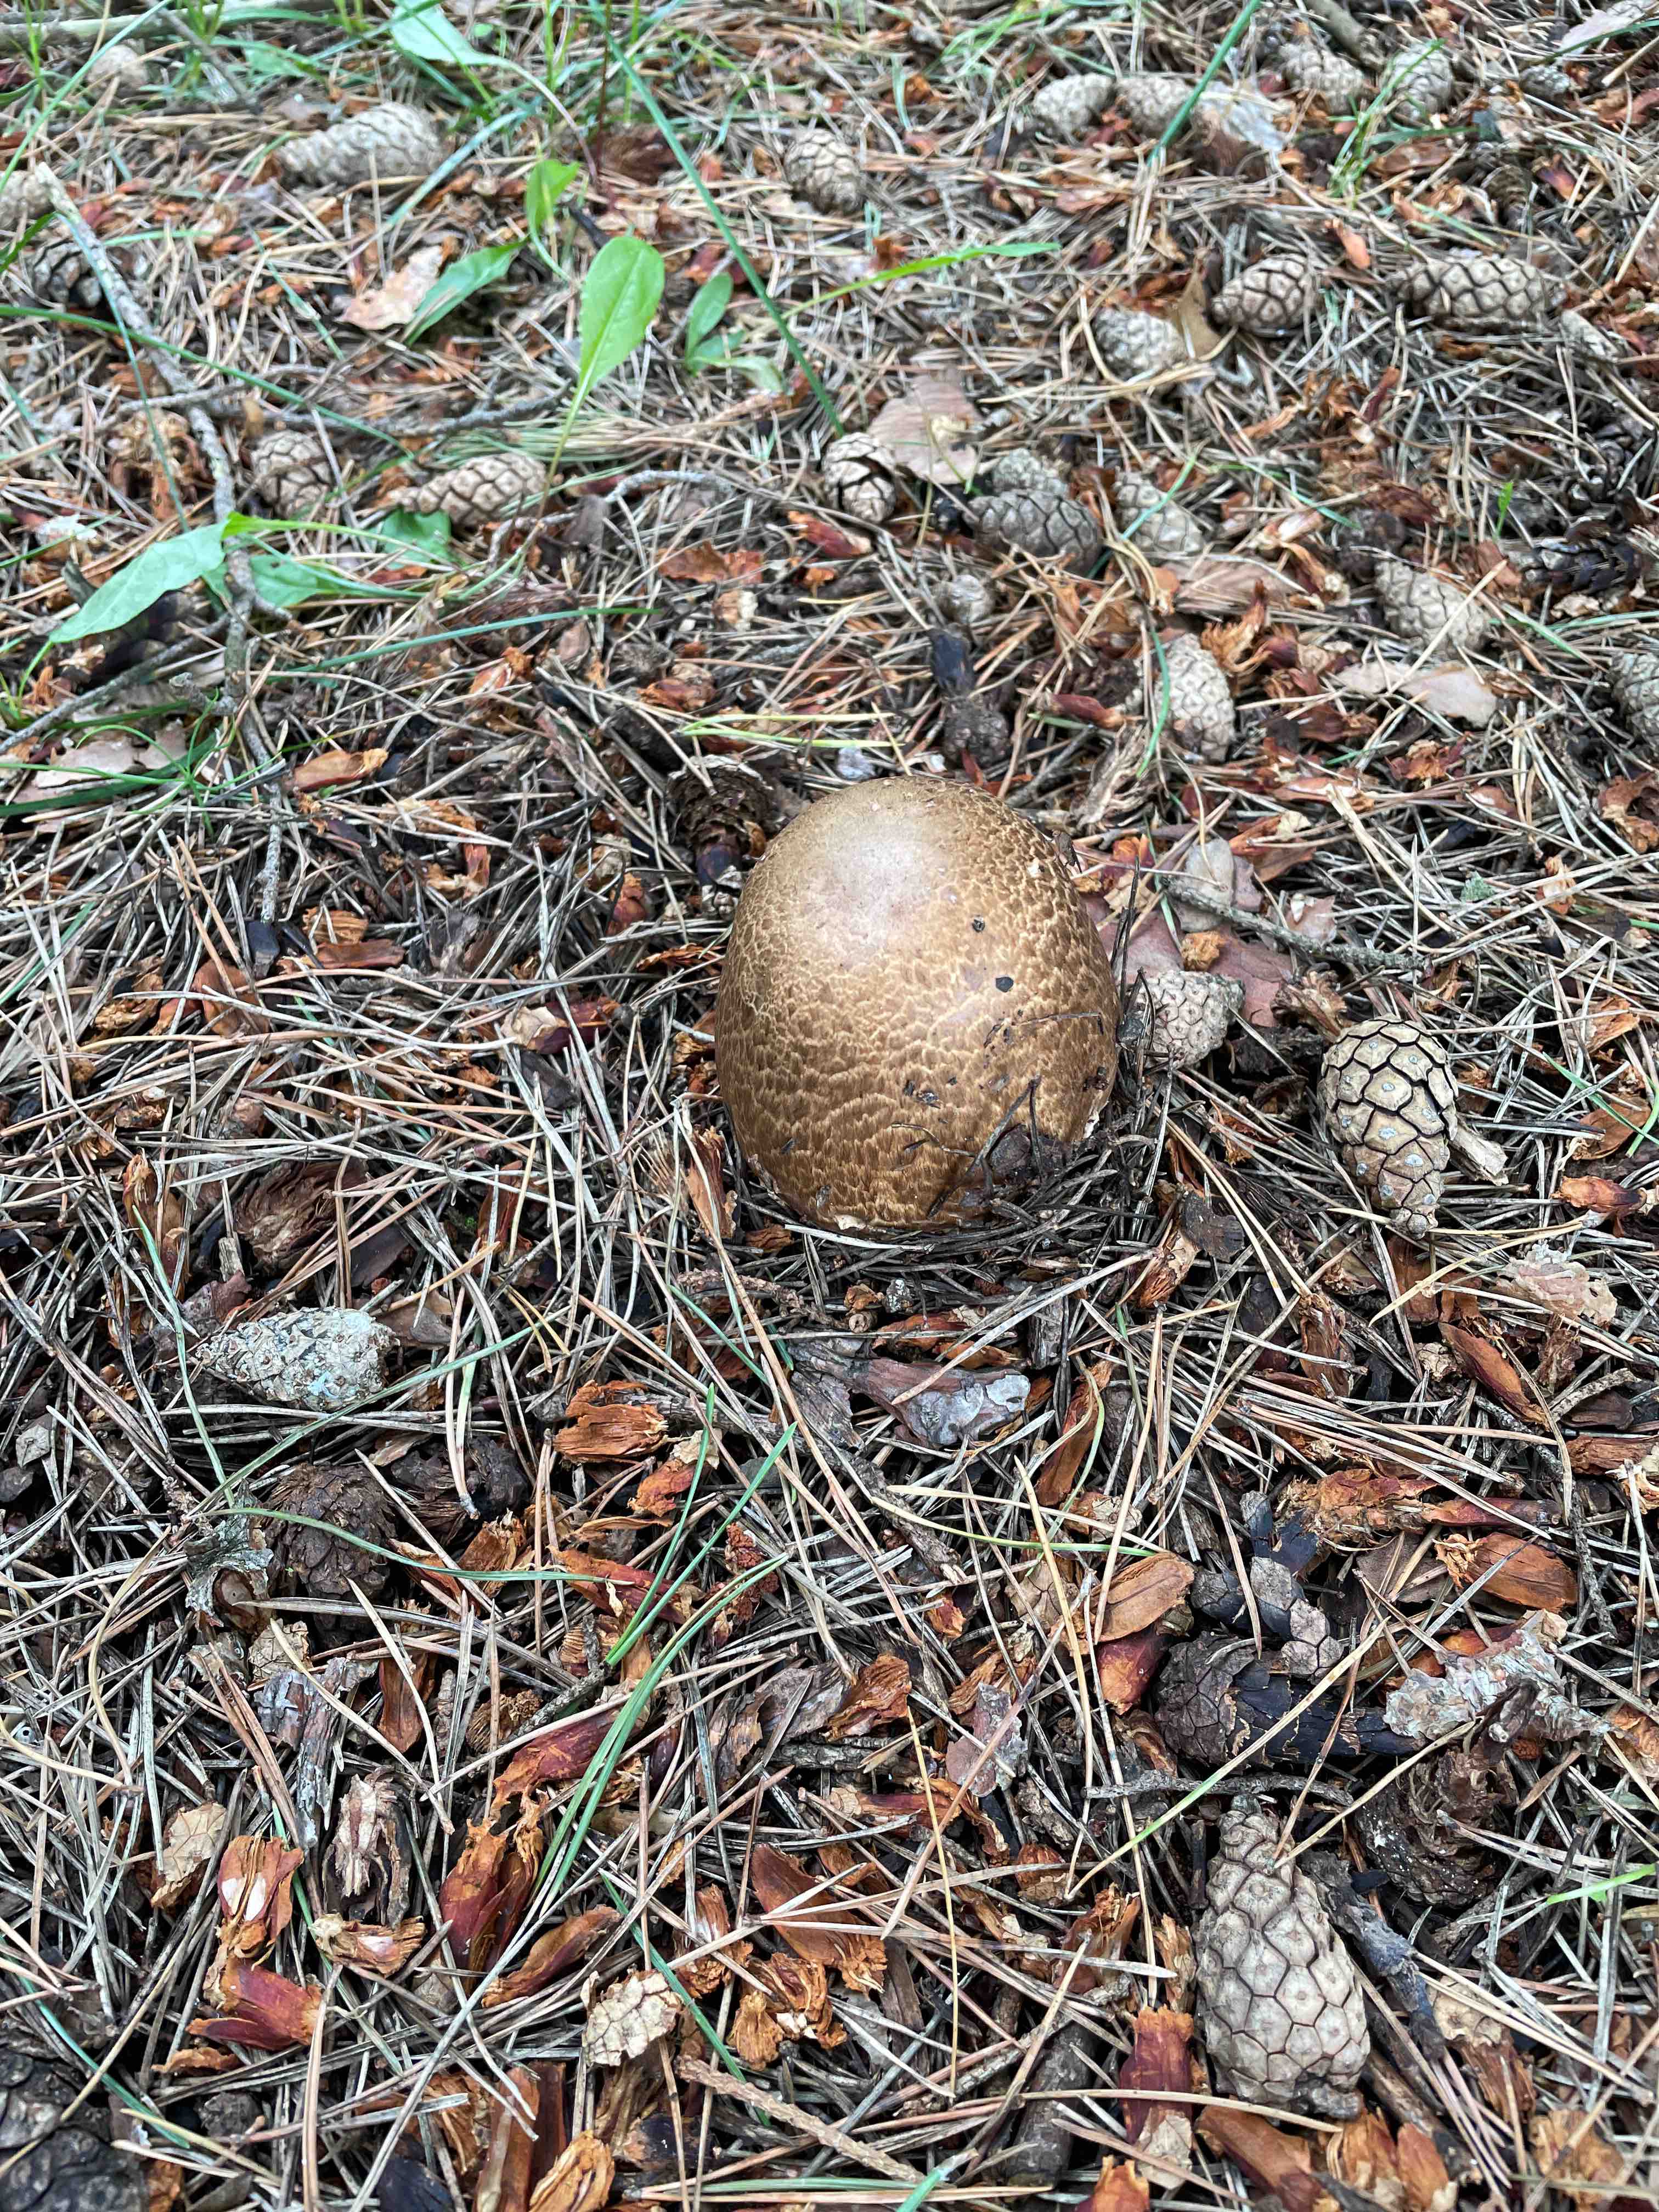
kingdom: Fungi
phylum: Basidiomycota
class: Agaricomycetes
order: Agaricales
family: Agaricaceae
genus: Agaricus
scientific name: Agaricus augustus
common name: prægtig champignon
